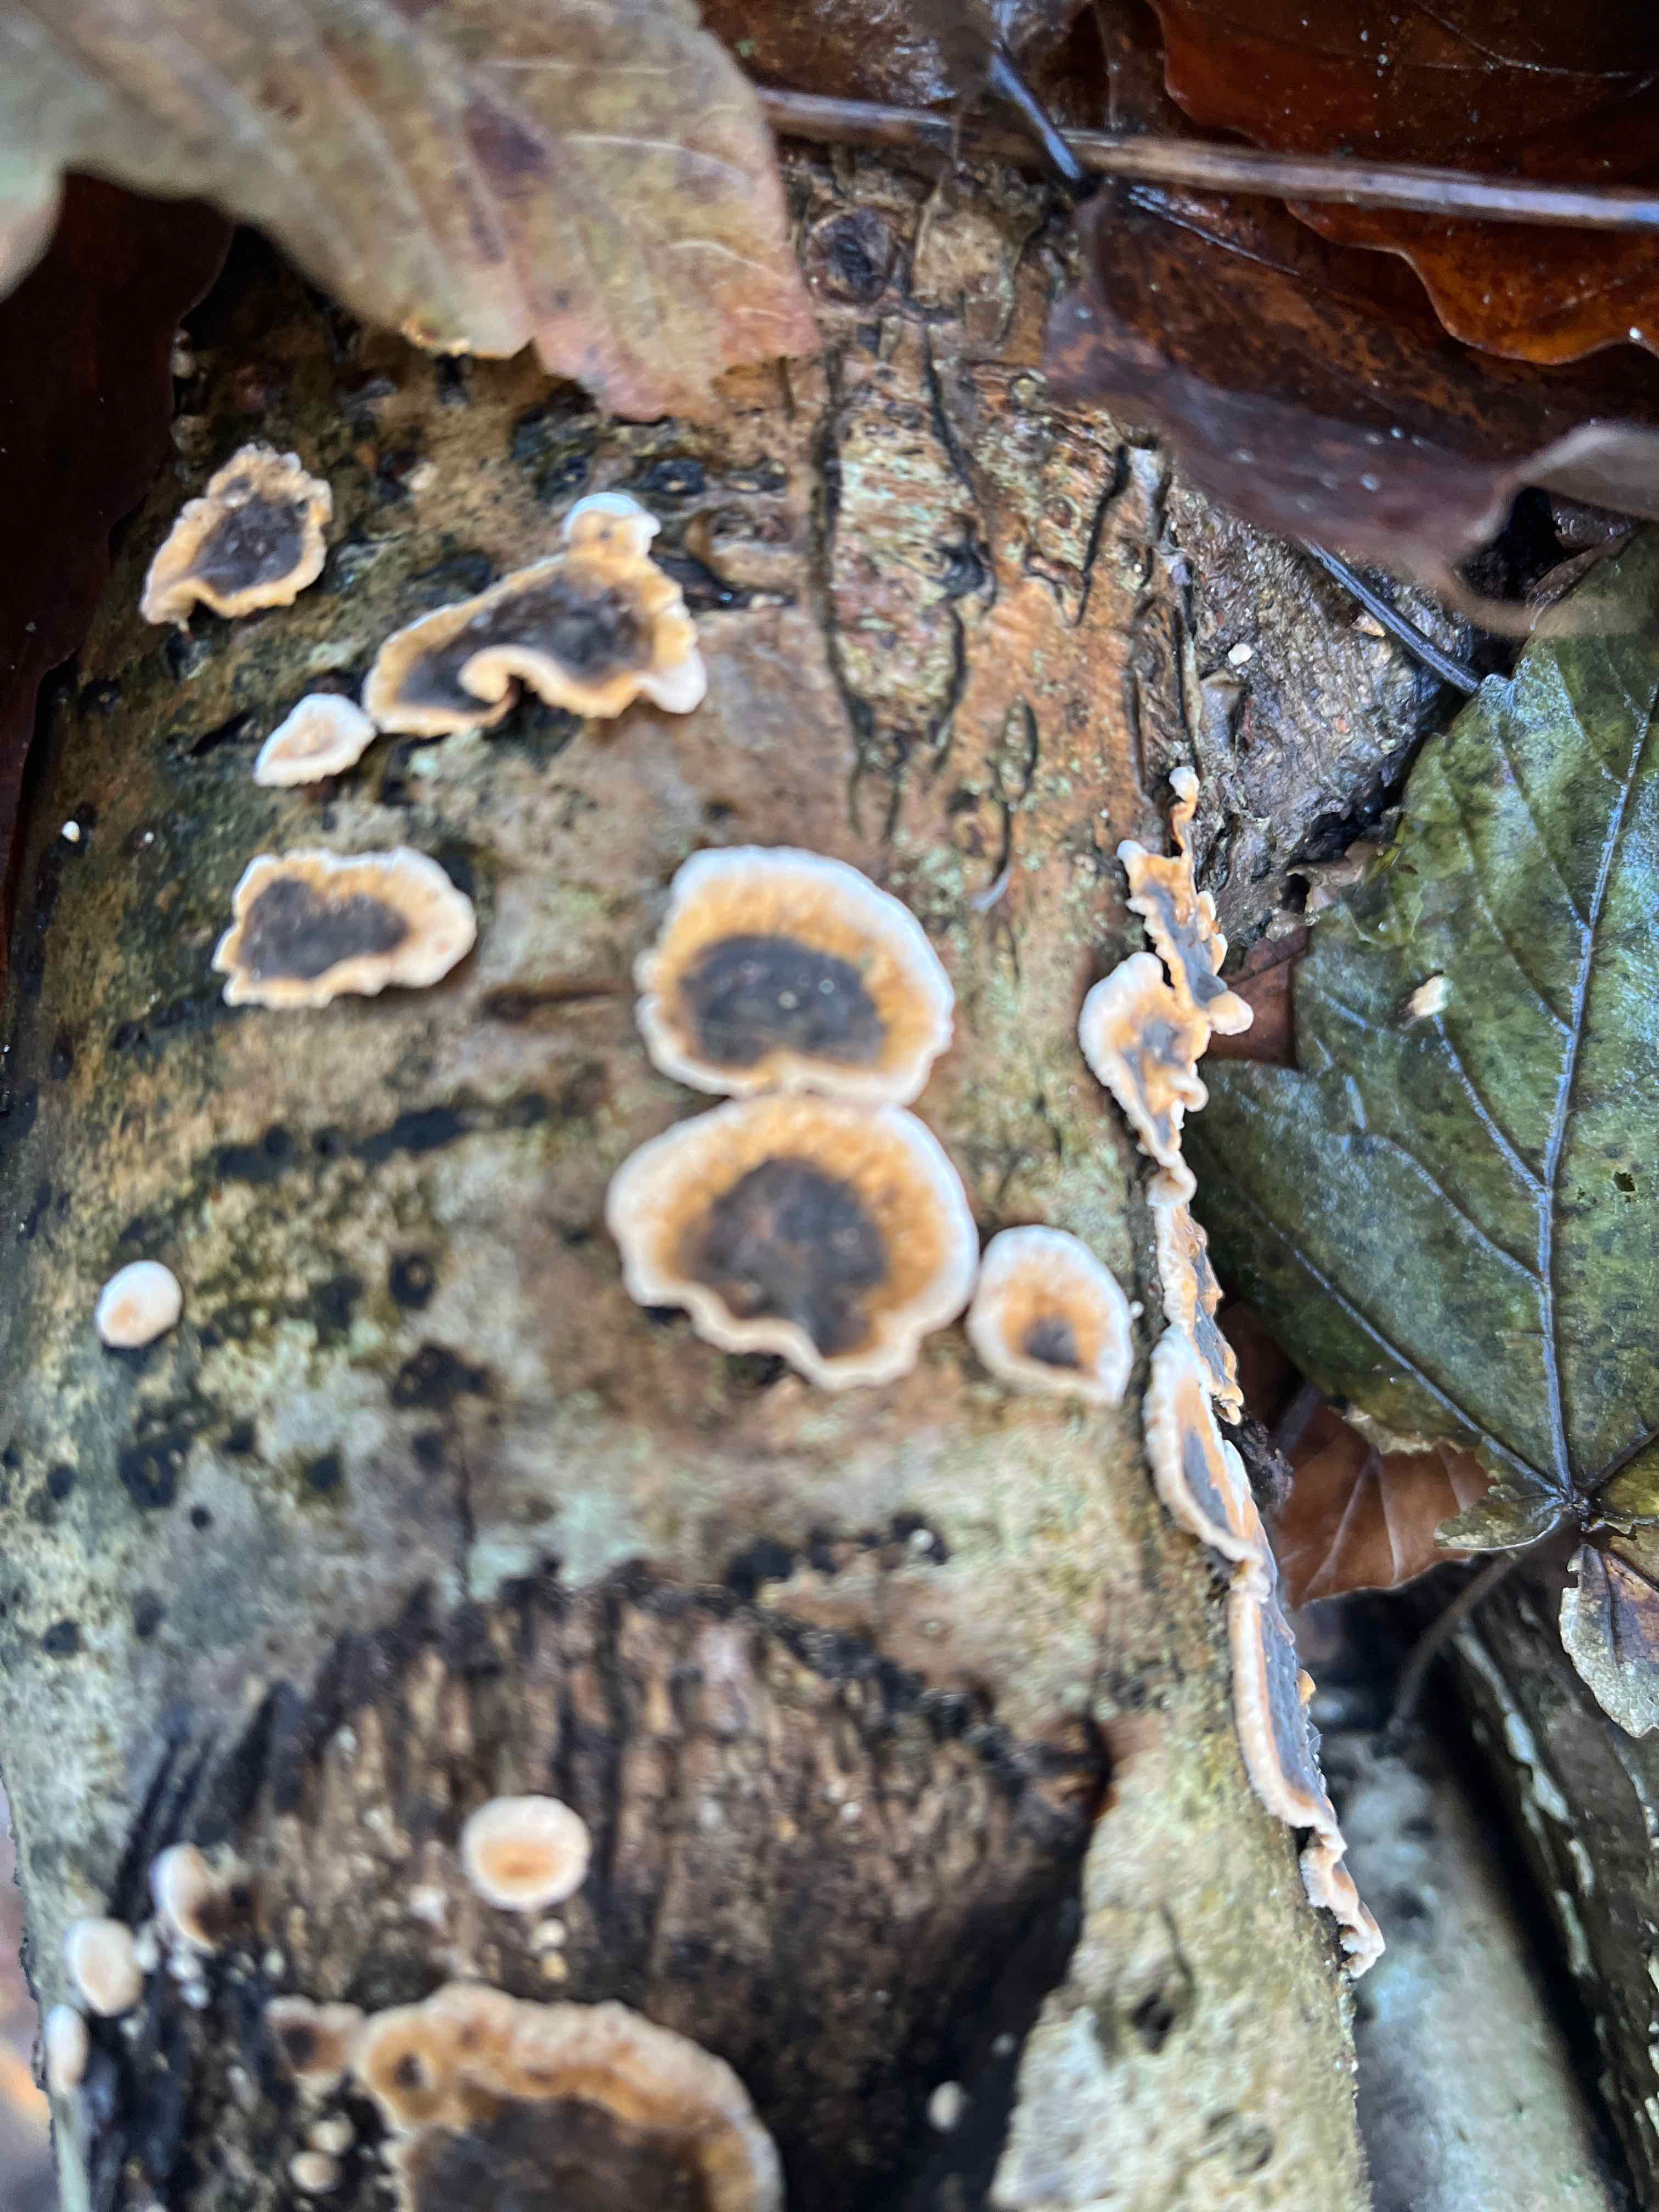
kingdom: Fungi
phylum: Basidiomycota
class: Agaricomycetes
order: Russulales
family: Stereaceae
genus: Stereum
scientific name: Stereum rugosum
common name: rynket lædersvamp
